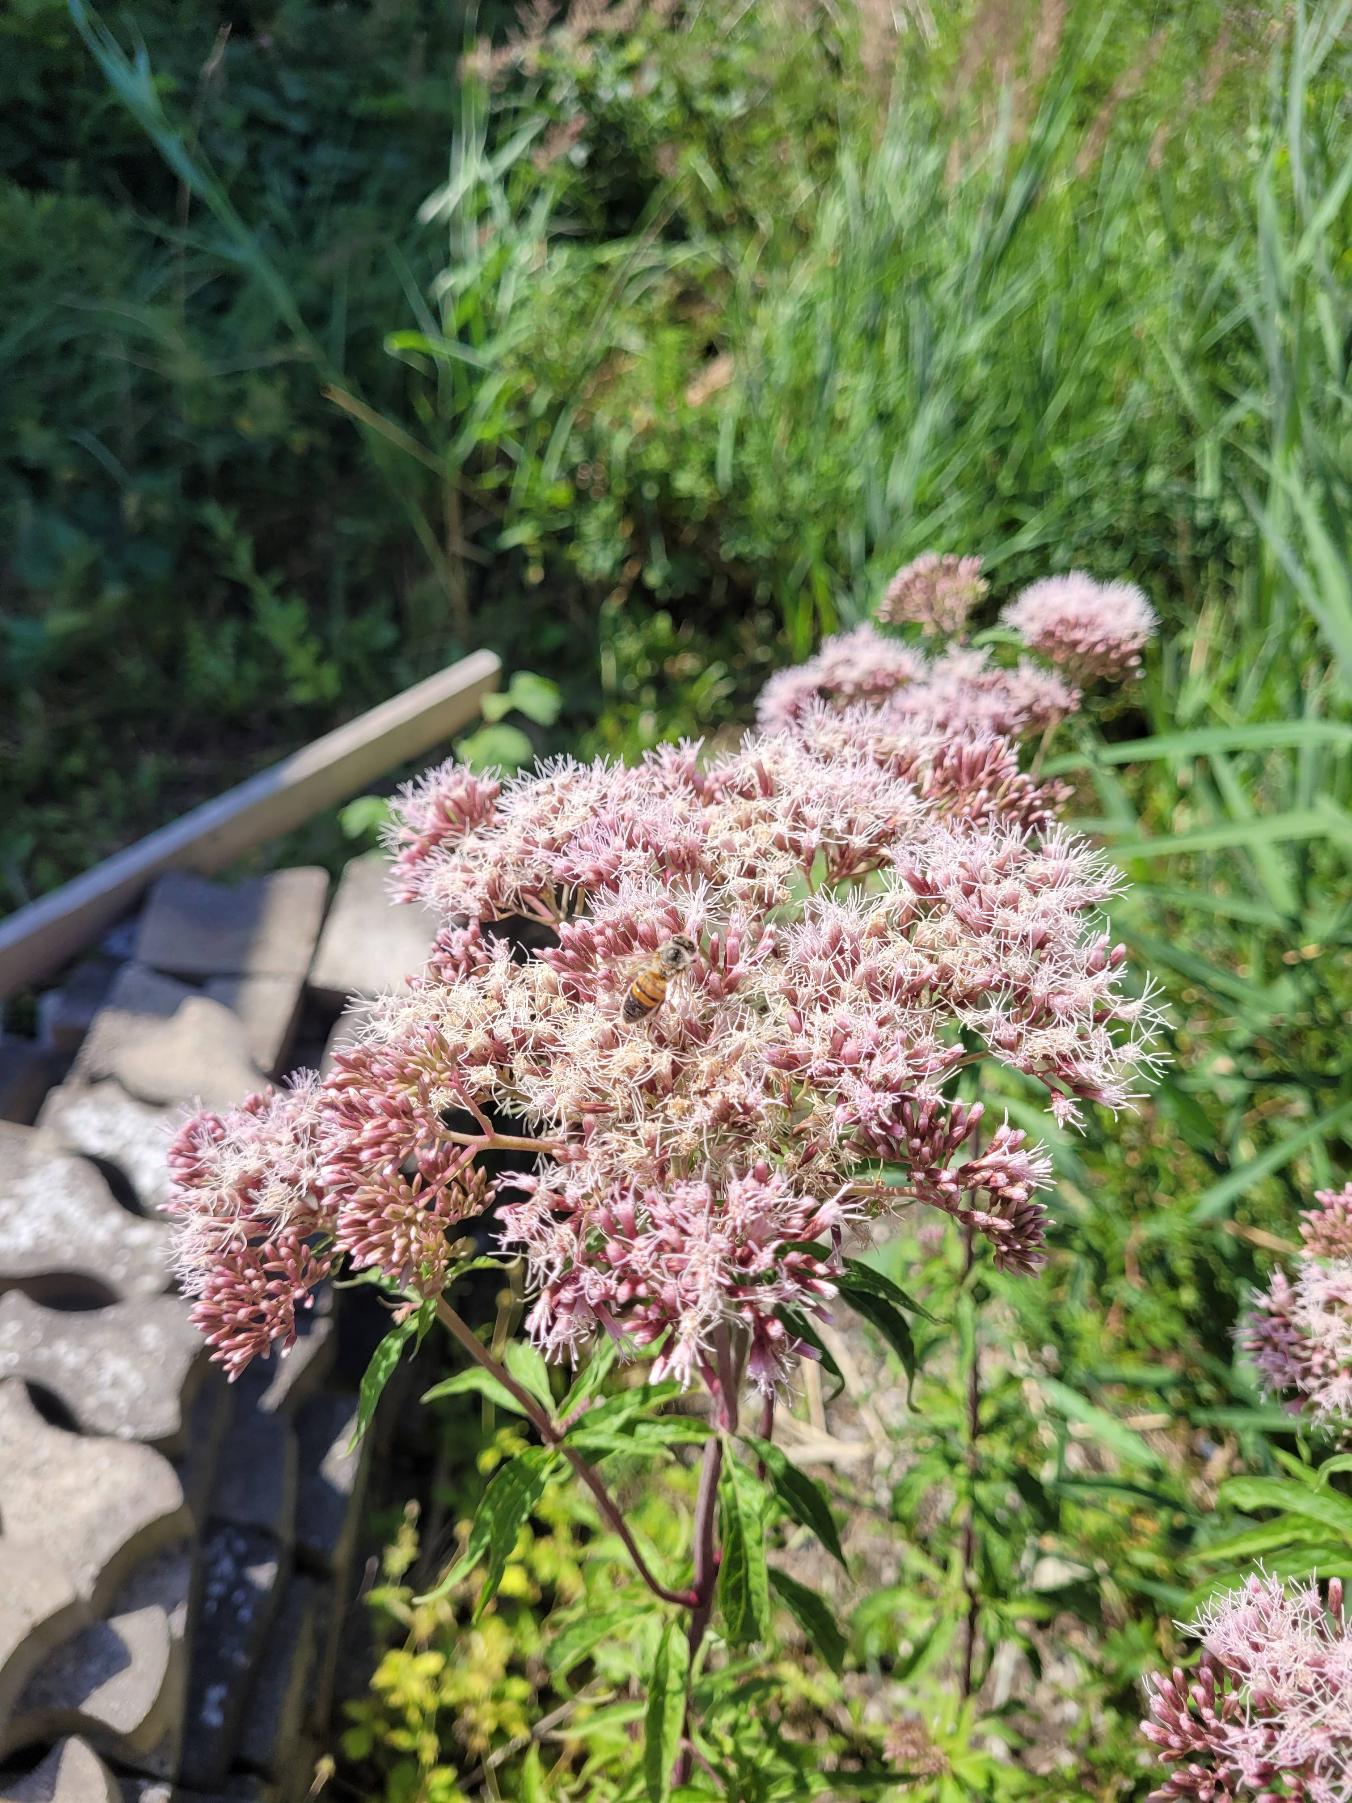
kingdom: Plantae
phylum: Tracheophyta
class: Magnoliopsida
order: Asterales
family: Asteraceae
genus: Eupatorium
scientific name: Eupatorium cannabinum
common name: Hjortetrøst
